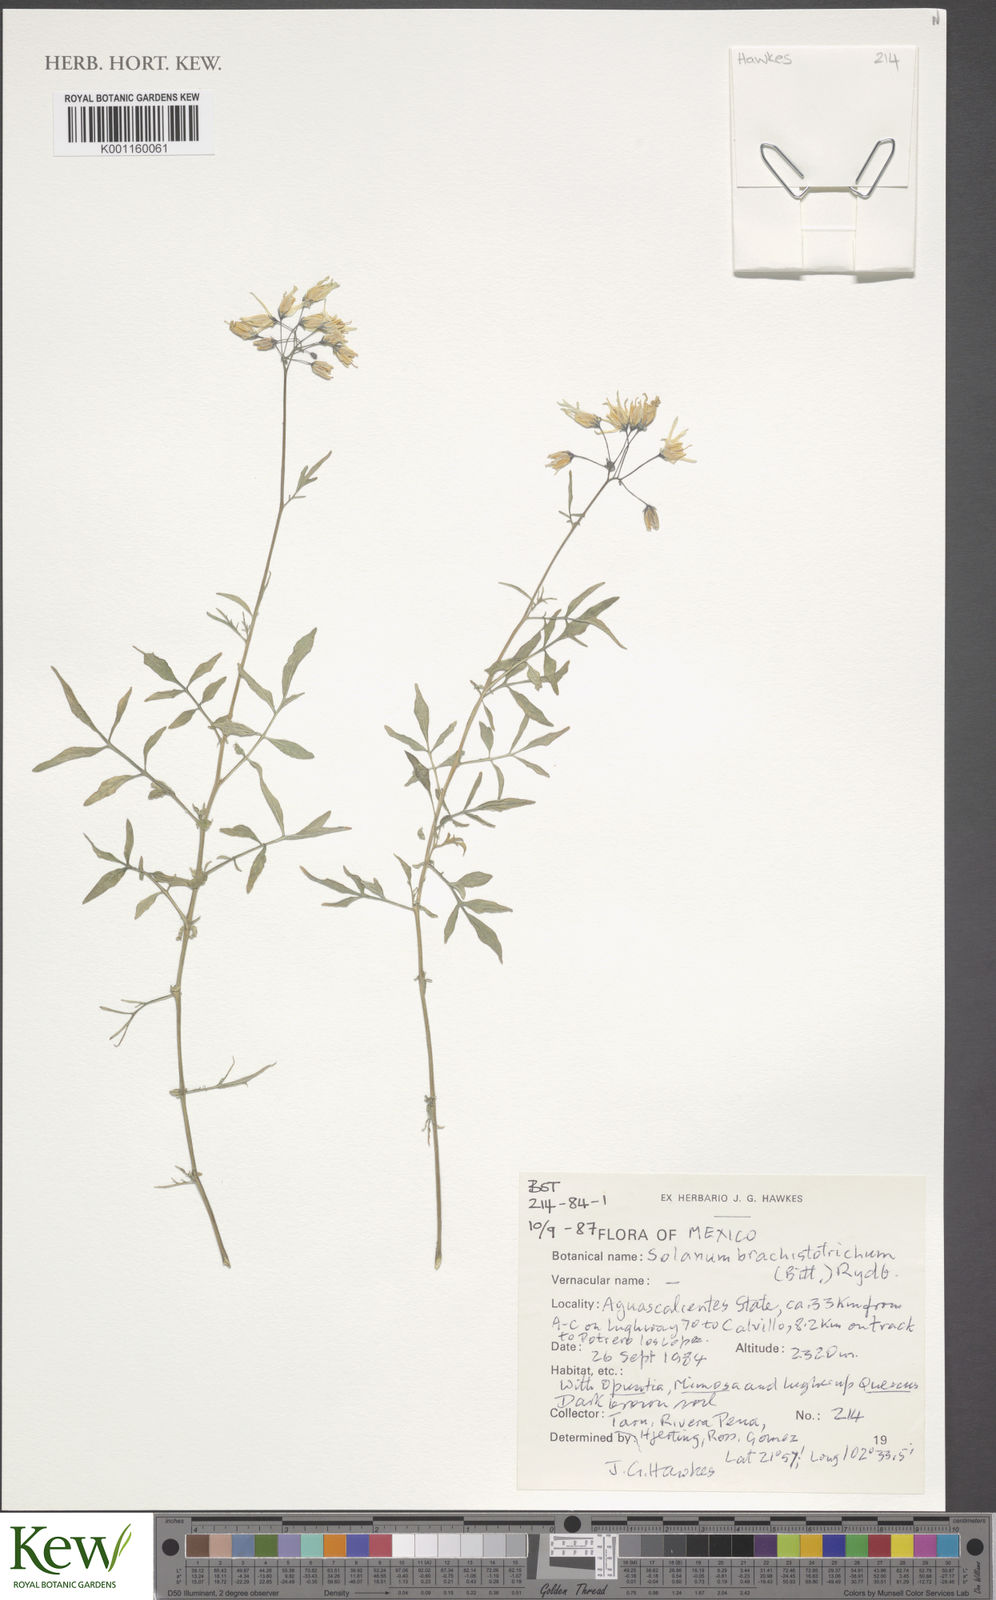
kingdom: Plantae
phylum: Tracheophyta
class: Magnoliopsida
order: Solanales
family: Solanaceae
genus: Solanum
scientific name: Solanum
